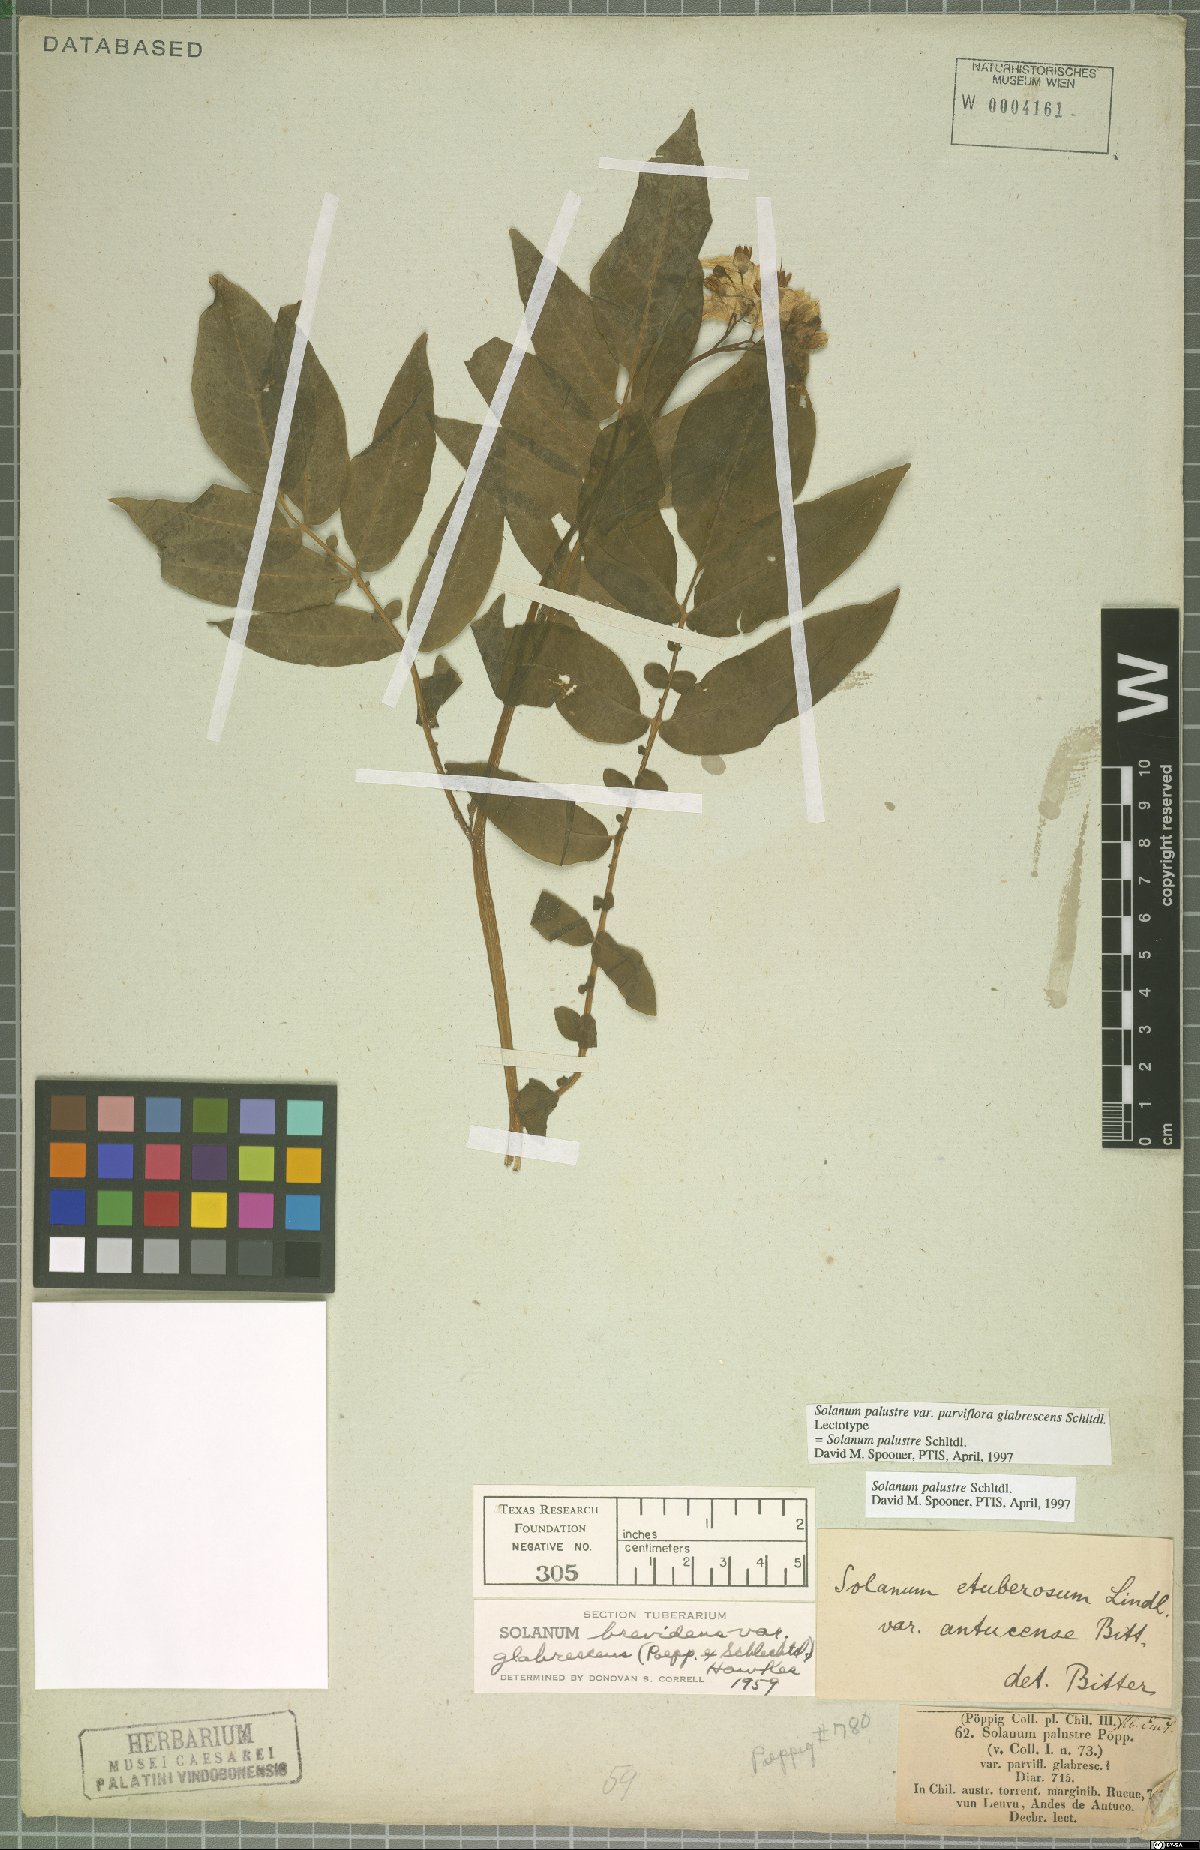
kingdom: Plantae
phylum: Tracheophyta
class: Magnoliopsida
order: Solanales
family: Solanaceae
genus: Solanum
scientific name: Solanum palustre
